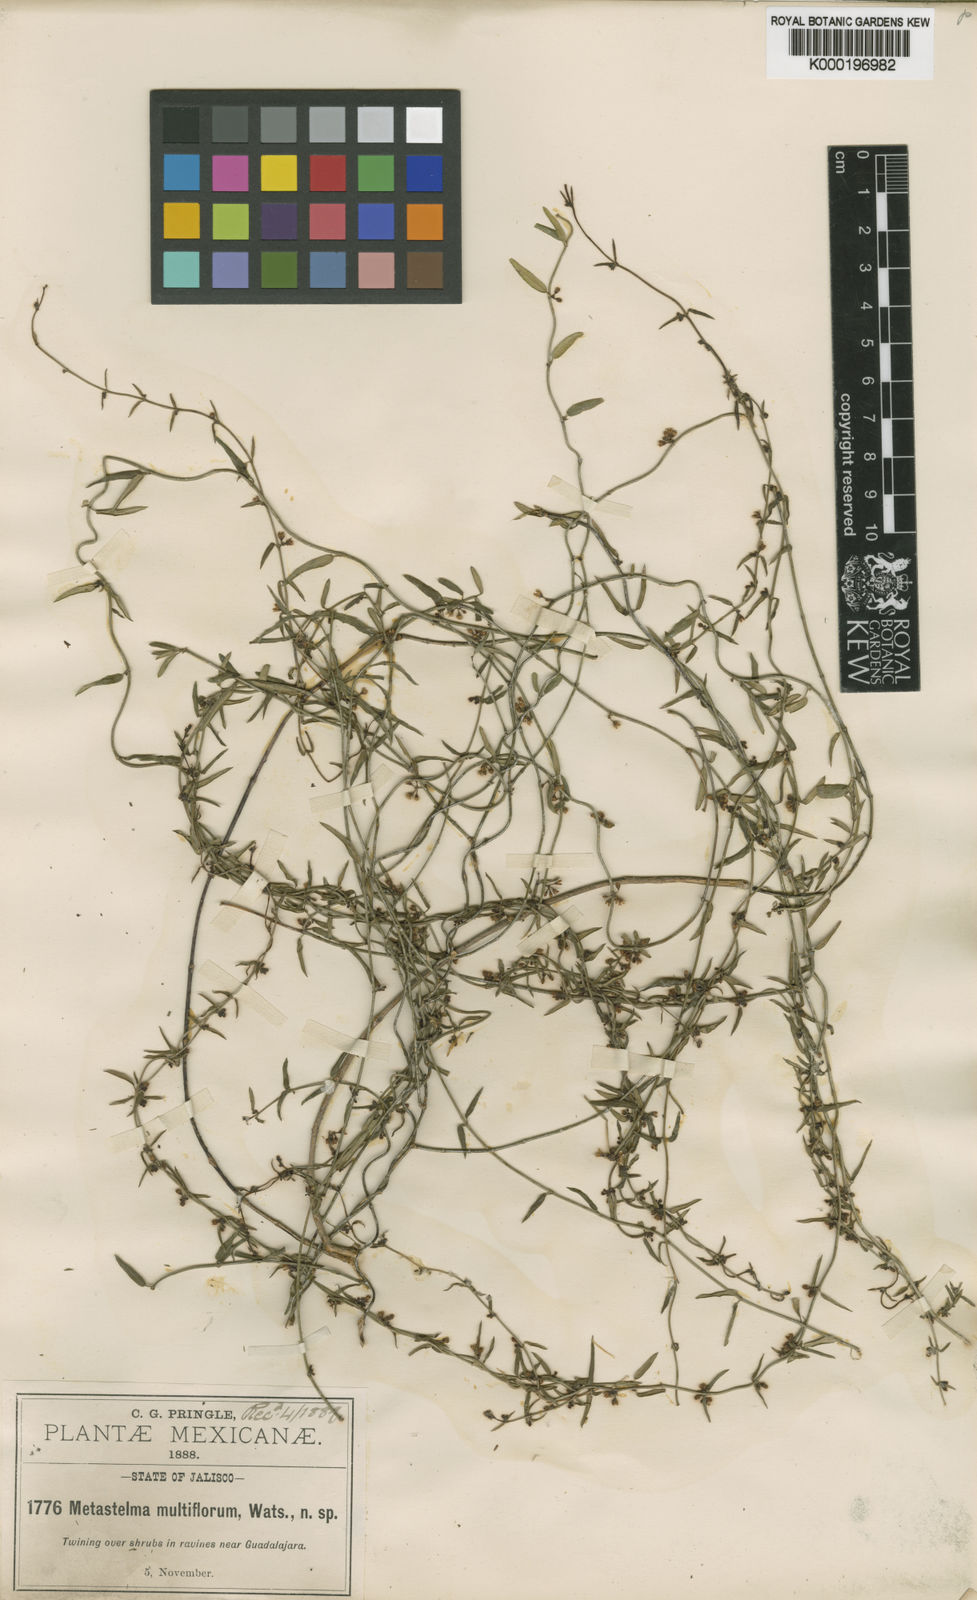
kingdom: Plantae
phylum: Tracheophyta
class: Magnoliopsida
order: Gentianales
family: Apocynaceae
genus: Metastelma
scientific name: Metastelma schaffneri
